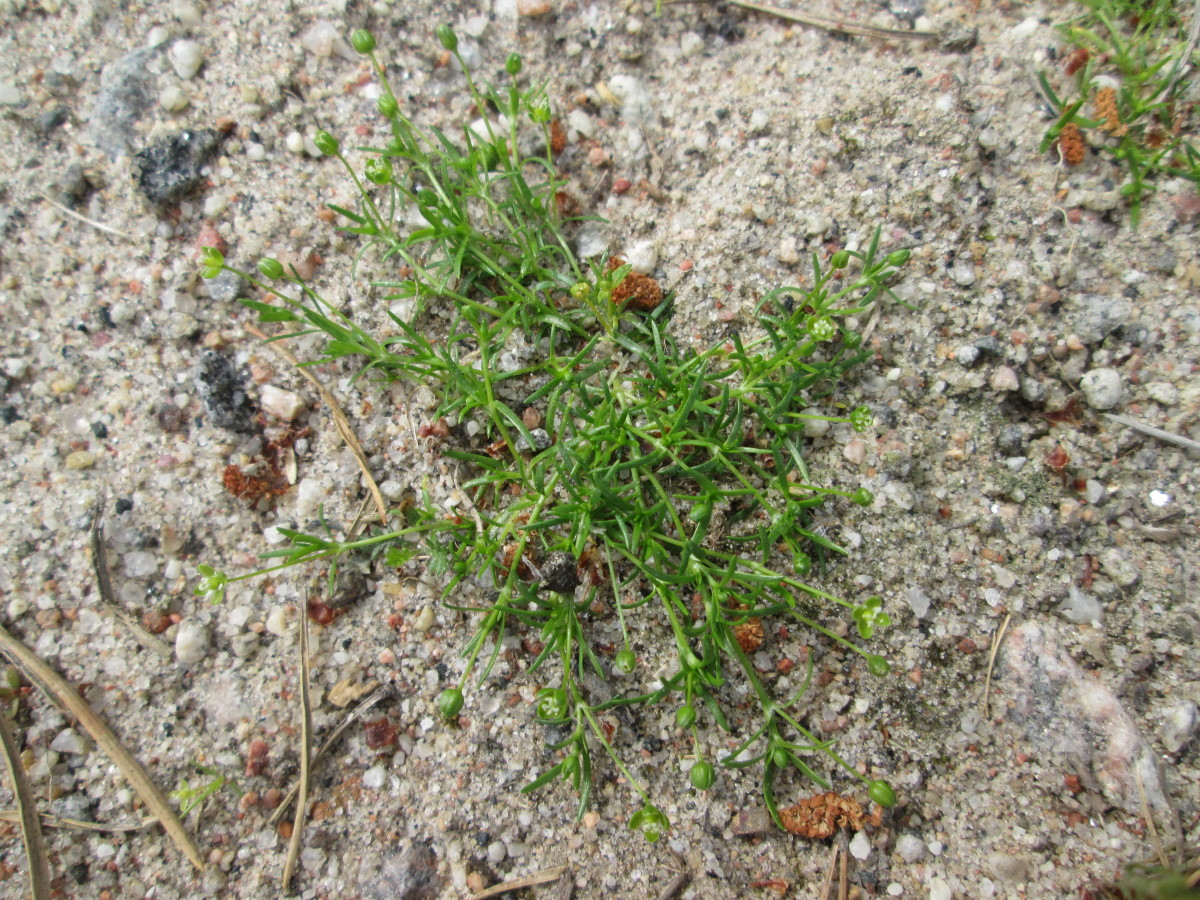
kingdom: Plantae
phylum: Tracheophyta
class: Magnoliopsida
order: Caryophyllales
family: Caryophyllaceae
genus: Sagina
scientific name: Sagina procumbens
